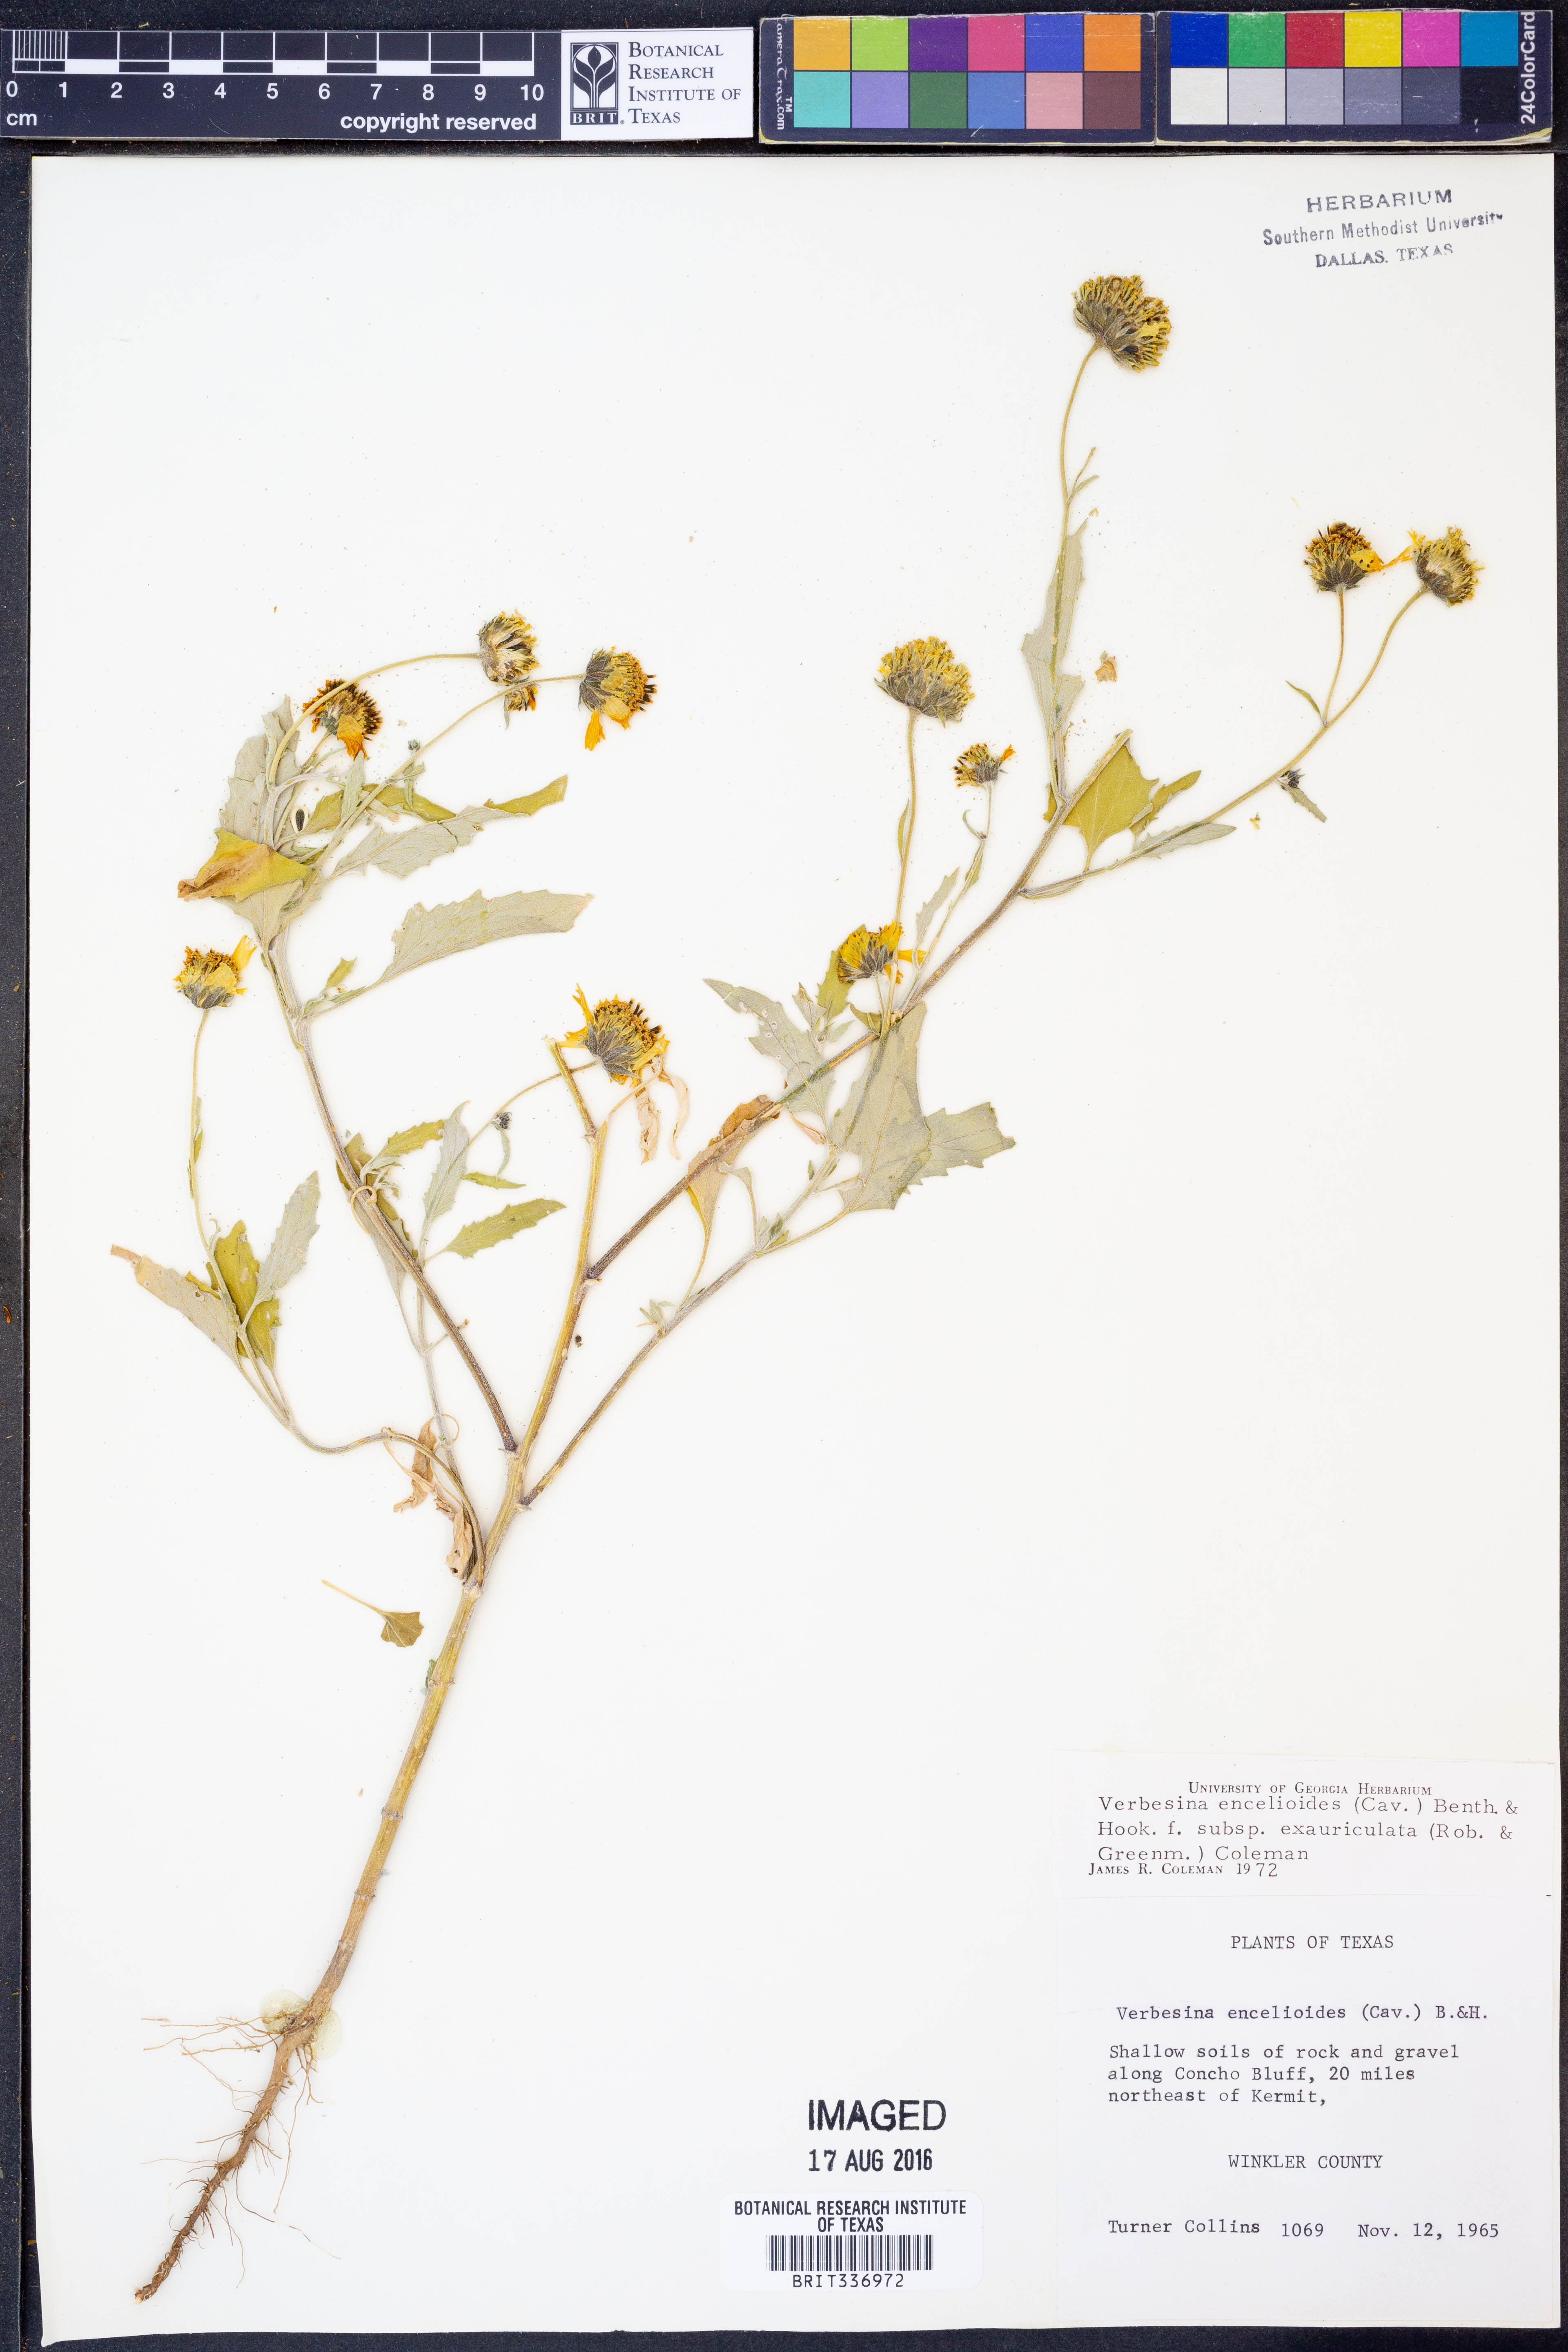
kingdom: Plantae
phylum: Tracheophyta
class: Magnoliopsida
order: Asterales
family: Asteraceae
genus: Verbesina
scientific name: Verbesina encelioides
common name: Golden crownbeard
